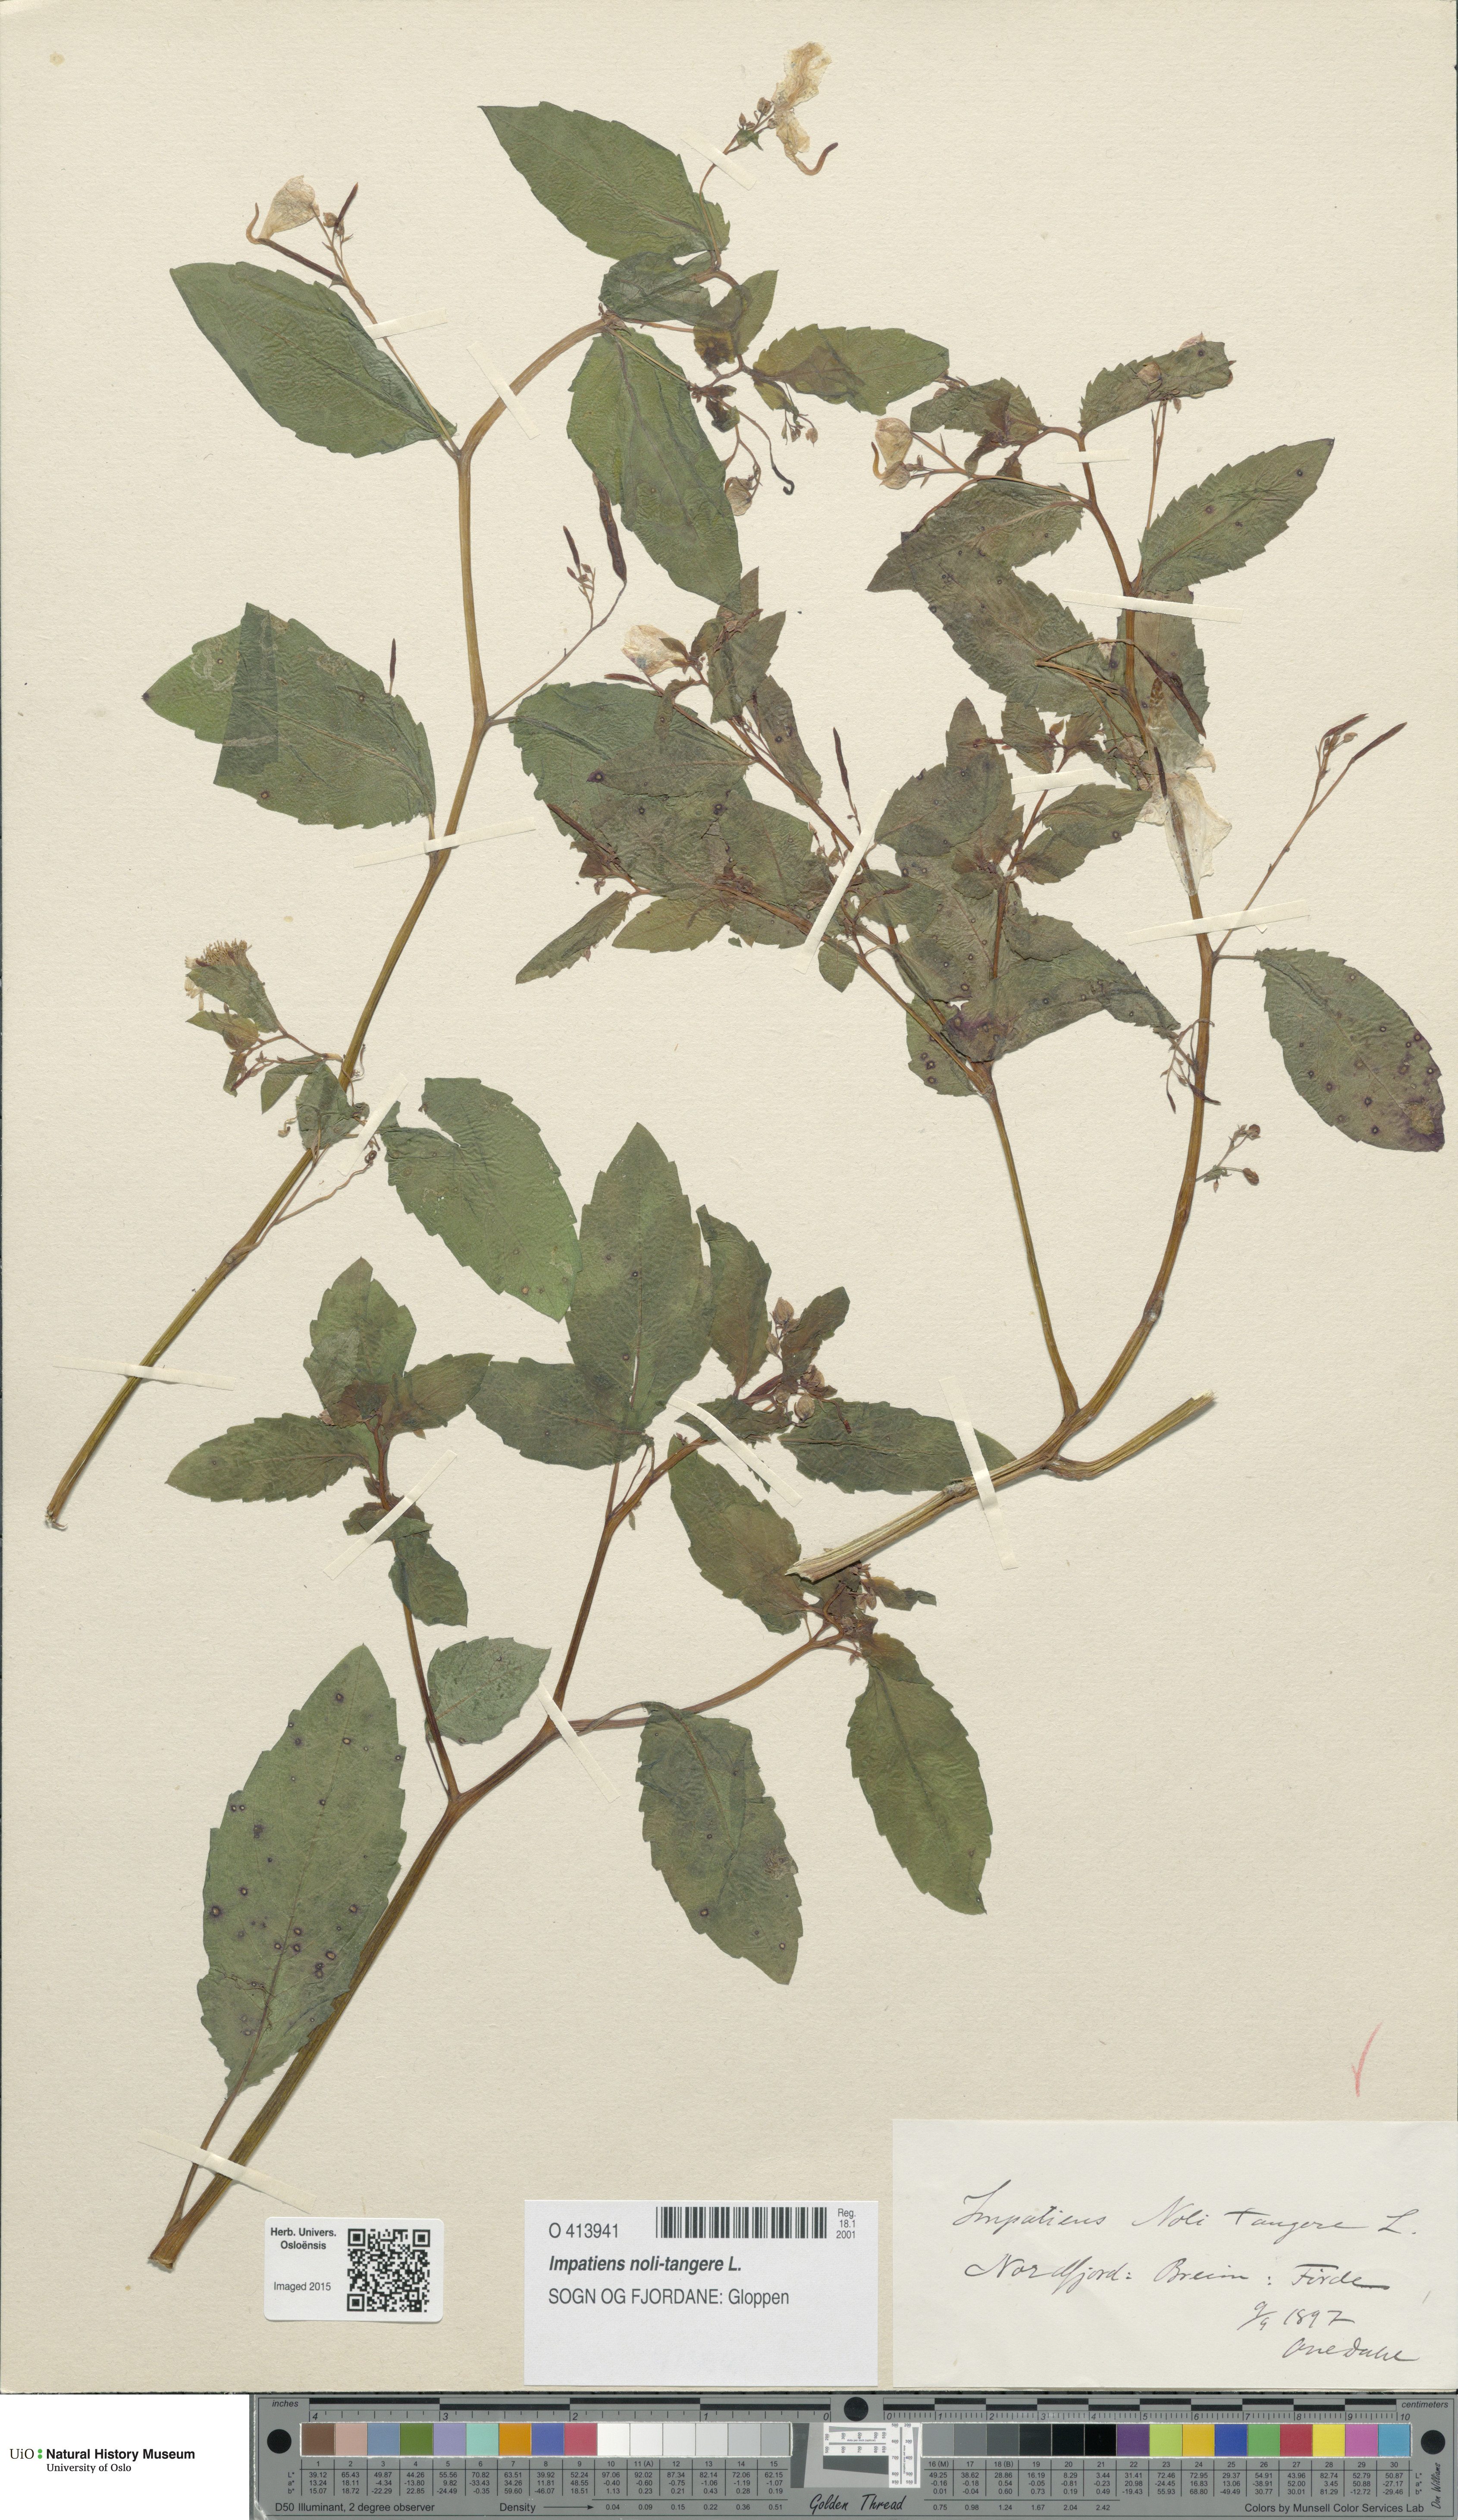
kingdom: Plantae
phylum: Tracheophyta
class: Magnoliopsida
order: Ericales
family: Balsaminaceae
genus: Impatiens
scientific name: Impatiens noli-tangere
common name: Touch-me-not balsam
